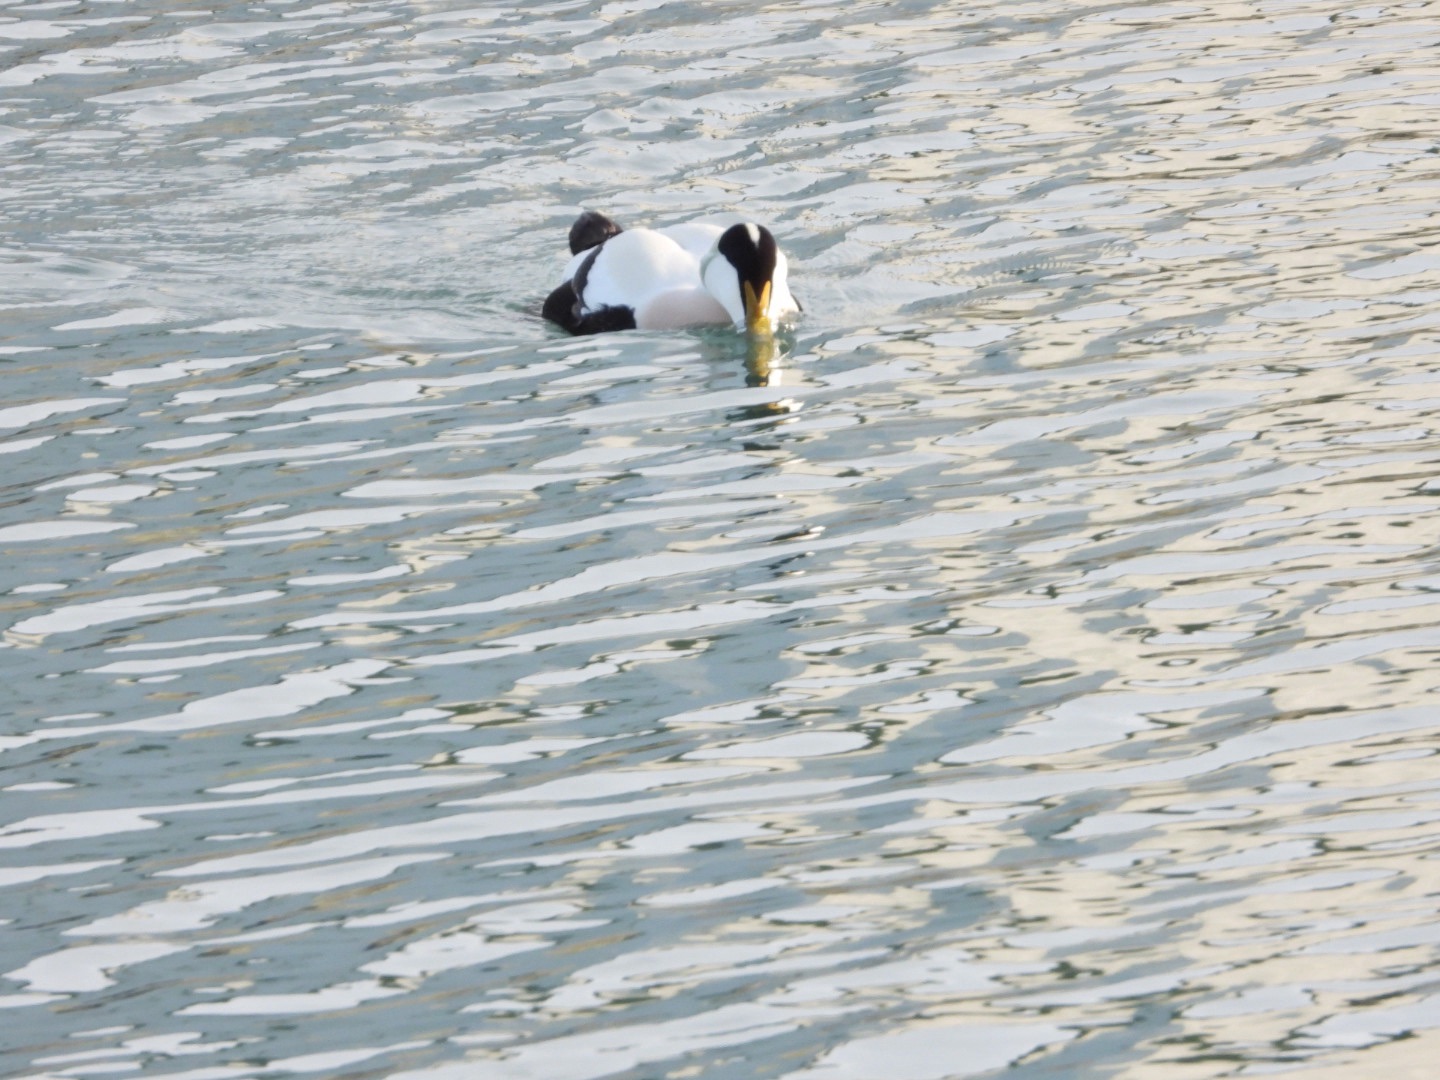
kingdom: Animalia
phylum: Chordata
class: Aves
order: Anseriformes
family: Anatidae
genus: Somateria
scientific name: Somateria mollissima
